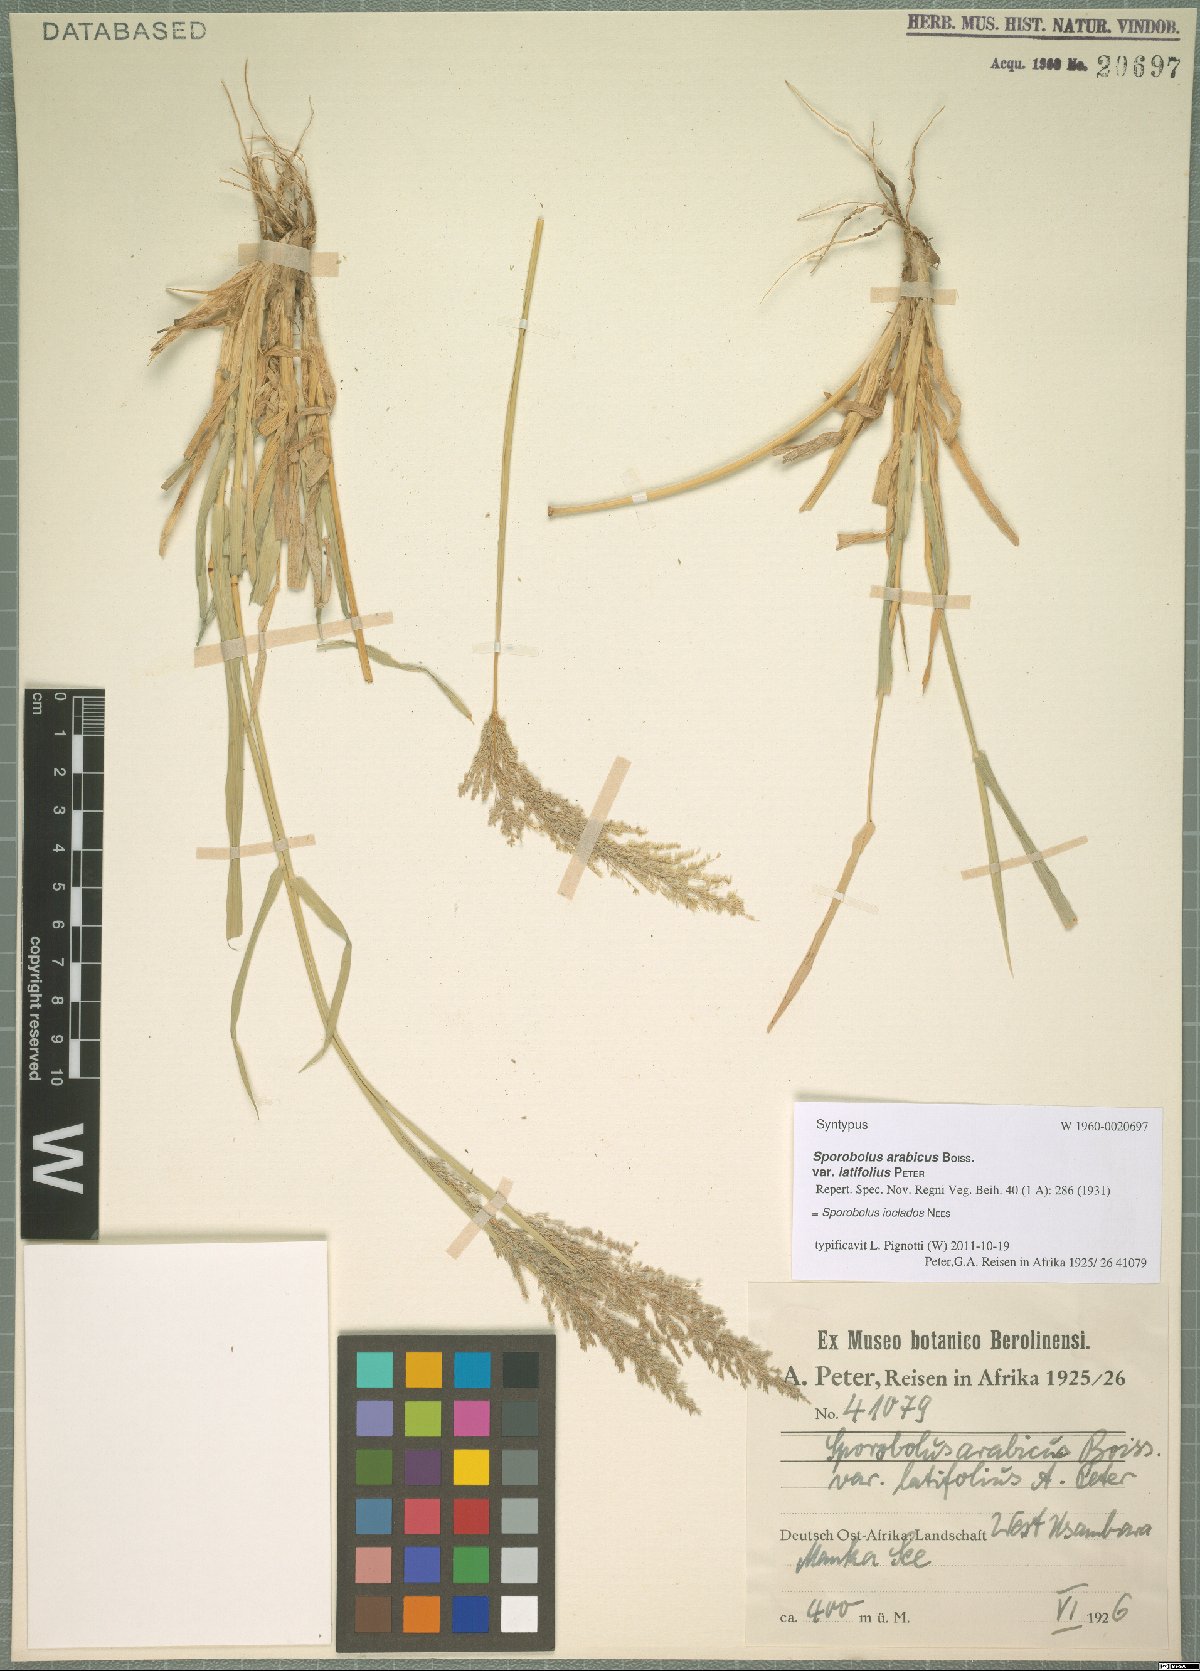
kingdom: Plantae
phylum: Tracheophyta
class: Liliopsida
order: Poales
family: Poaceae
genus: Sporobolus
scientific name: Sporobolus ioclados
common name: Pan dropseed
